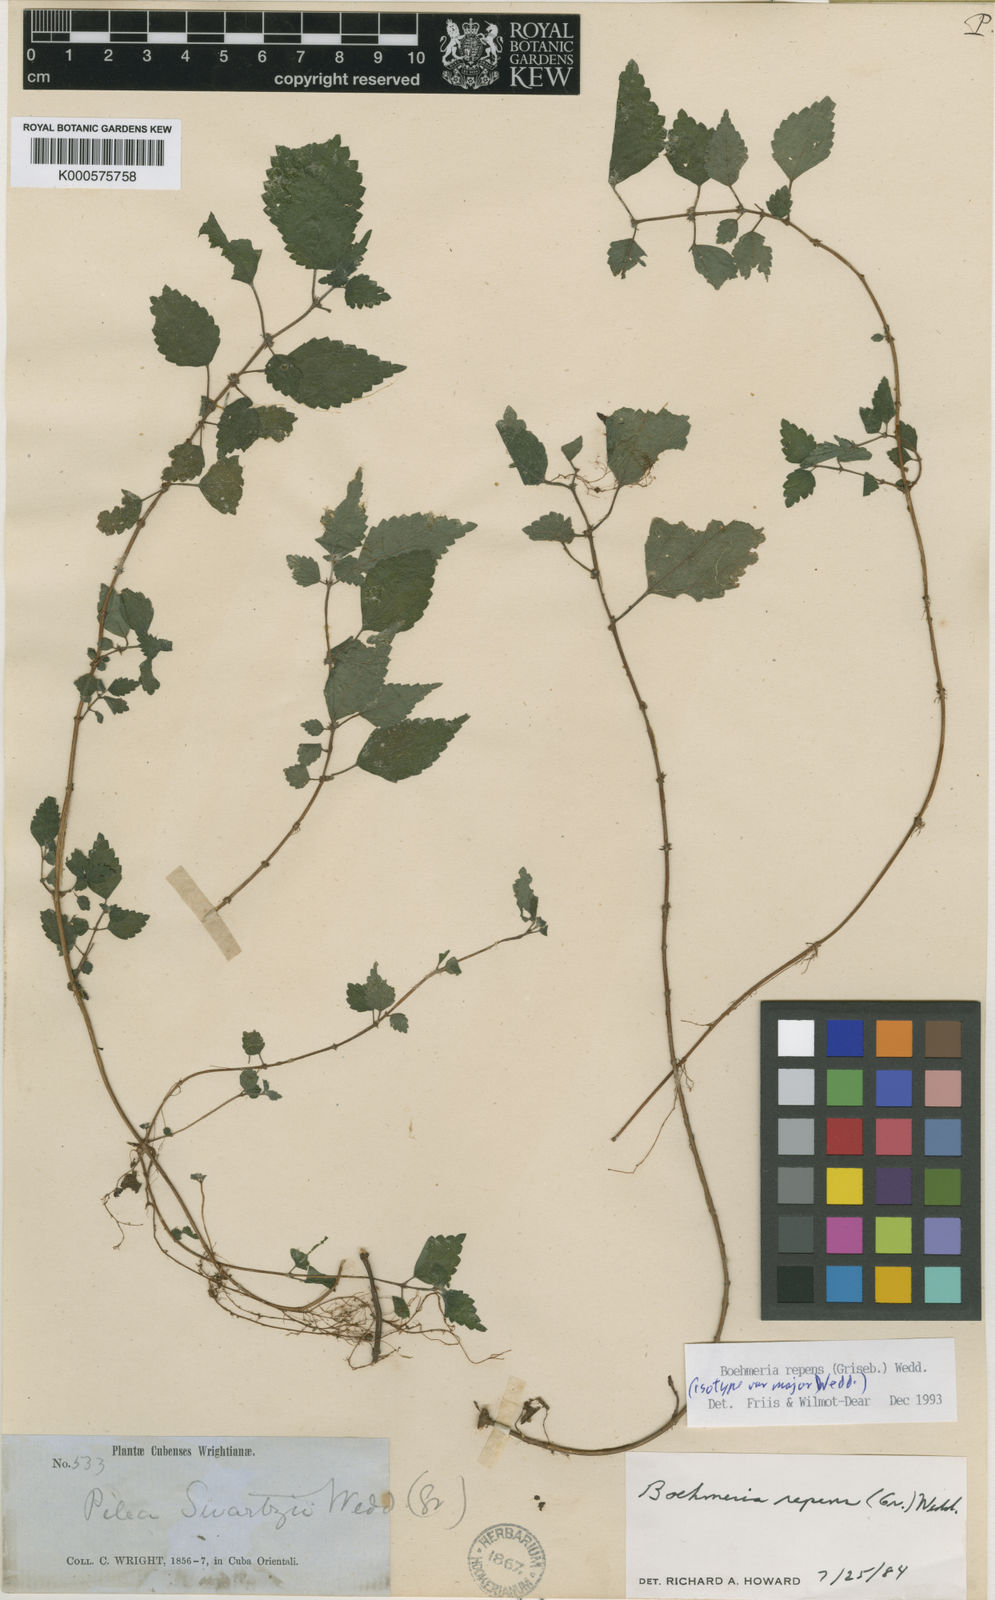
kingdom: Plantae
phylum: Tracheophyta
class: Magnoliopsida
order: Rosales
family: Urticaceae
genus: Boehmeria
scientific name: Boehmeria repens
